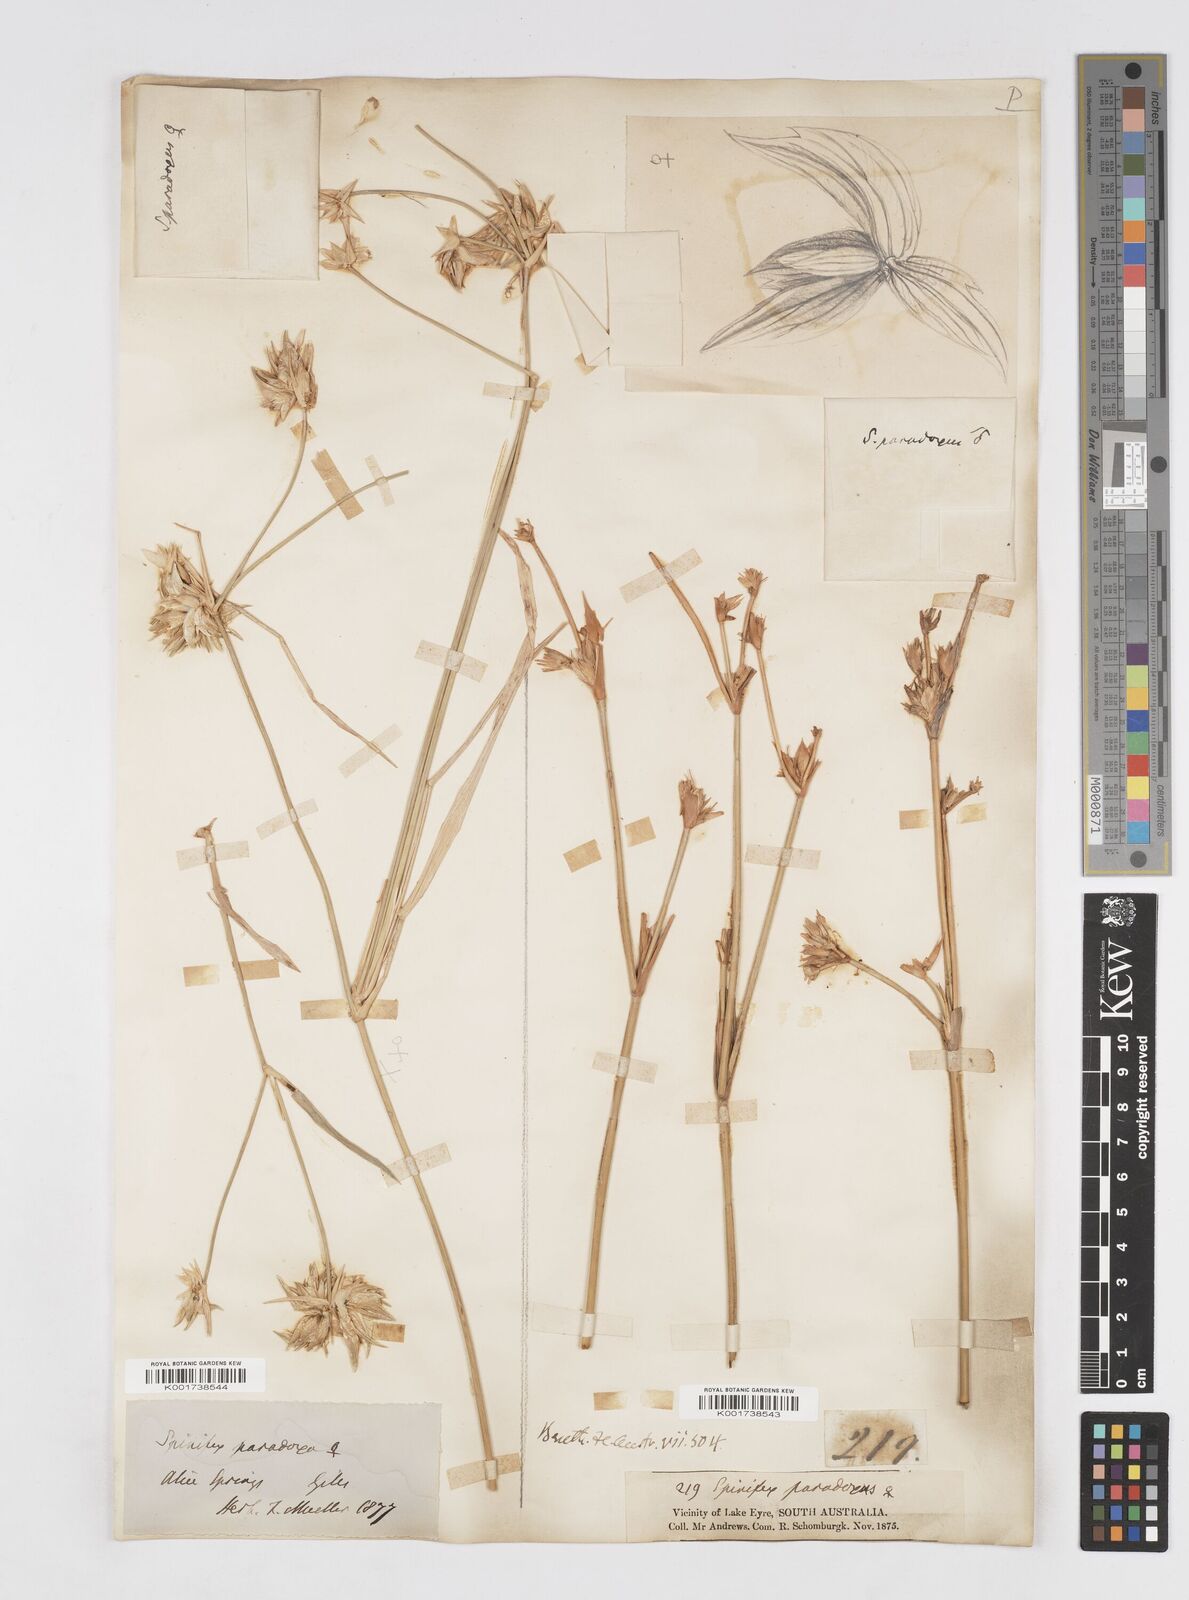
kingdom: Plantae
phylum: Tracheophyta
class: Liliopsida
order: Poales
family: Poaceae
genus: Zygochloa
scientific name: Zygochloa paradoxa
